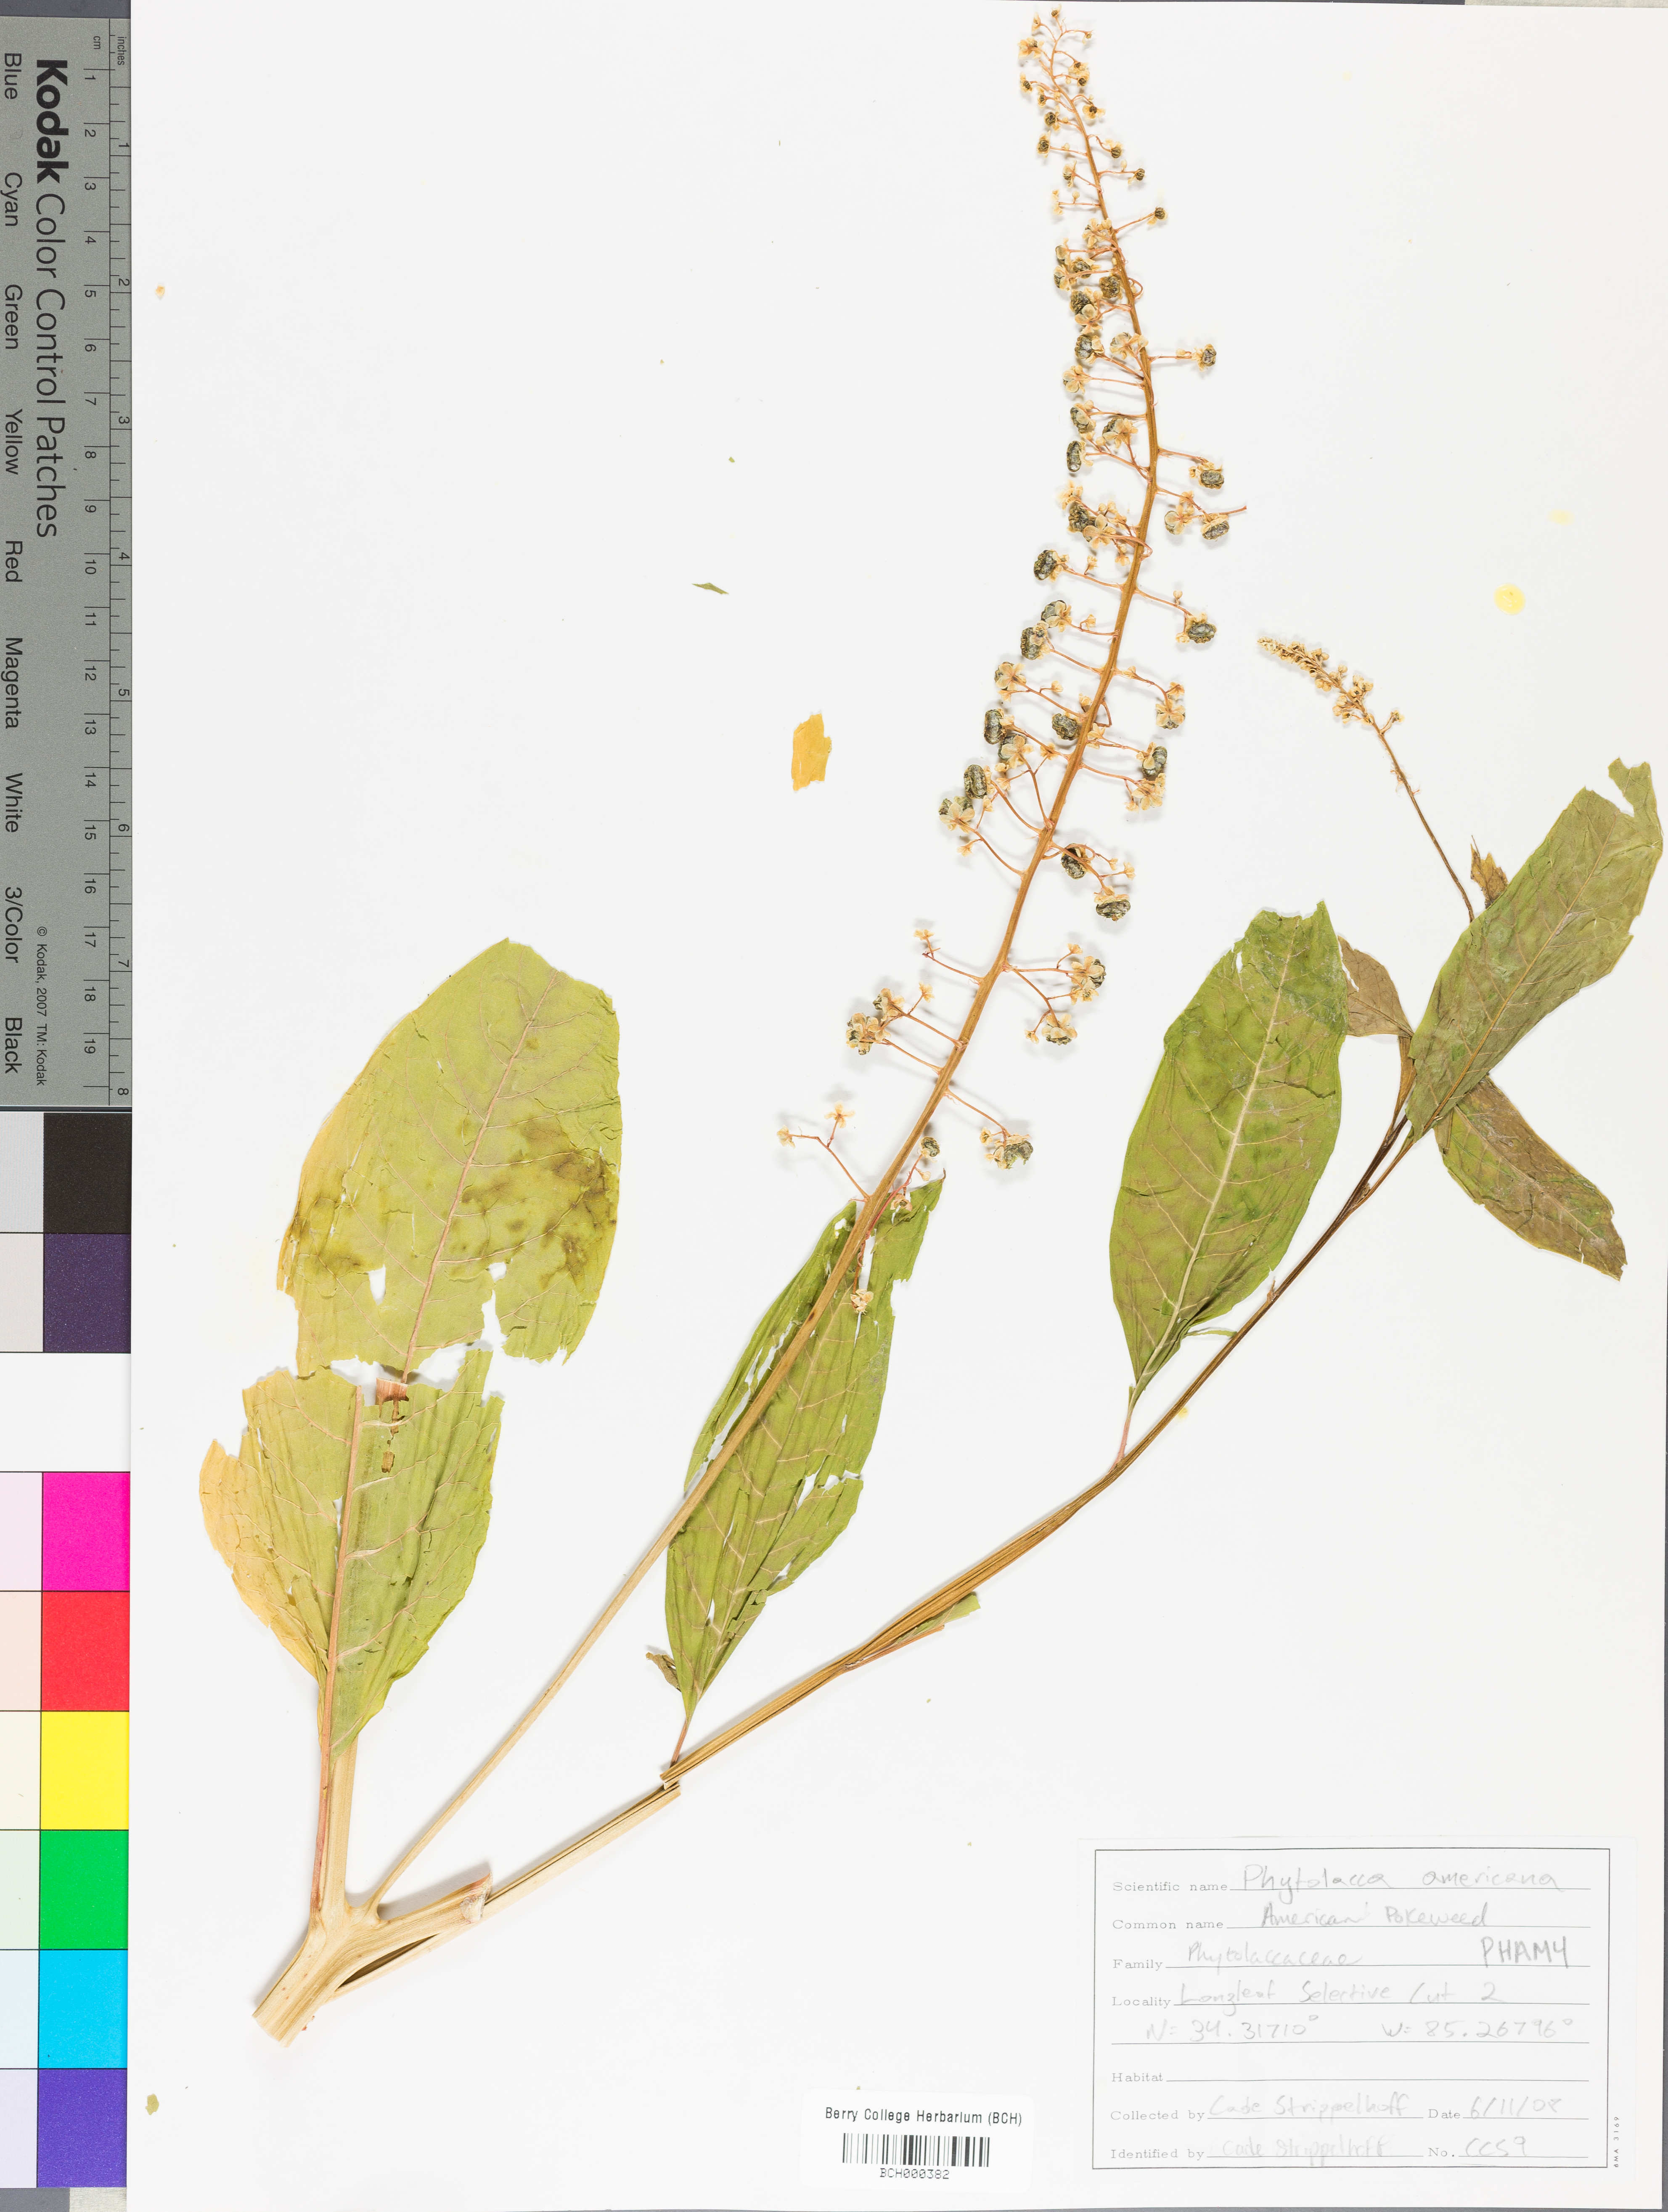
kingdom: Plantae
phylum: Tracheophyta
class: Magnoliopsida
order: Caryophyllales
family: Phytolaccaceae
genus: Phytolacca
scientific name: Phytolacca americana
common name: American pokeweed
